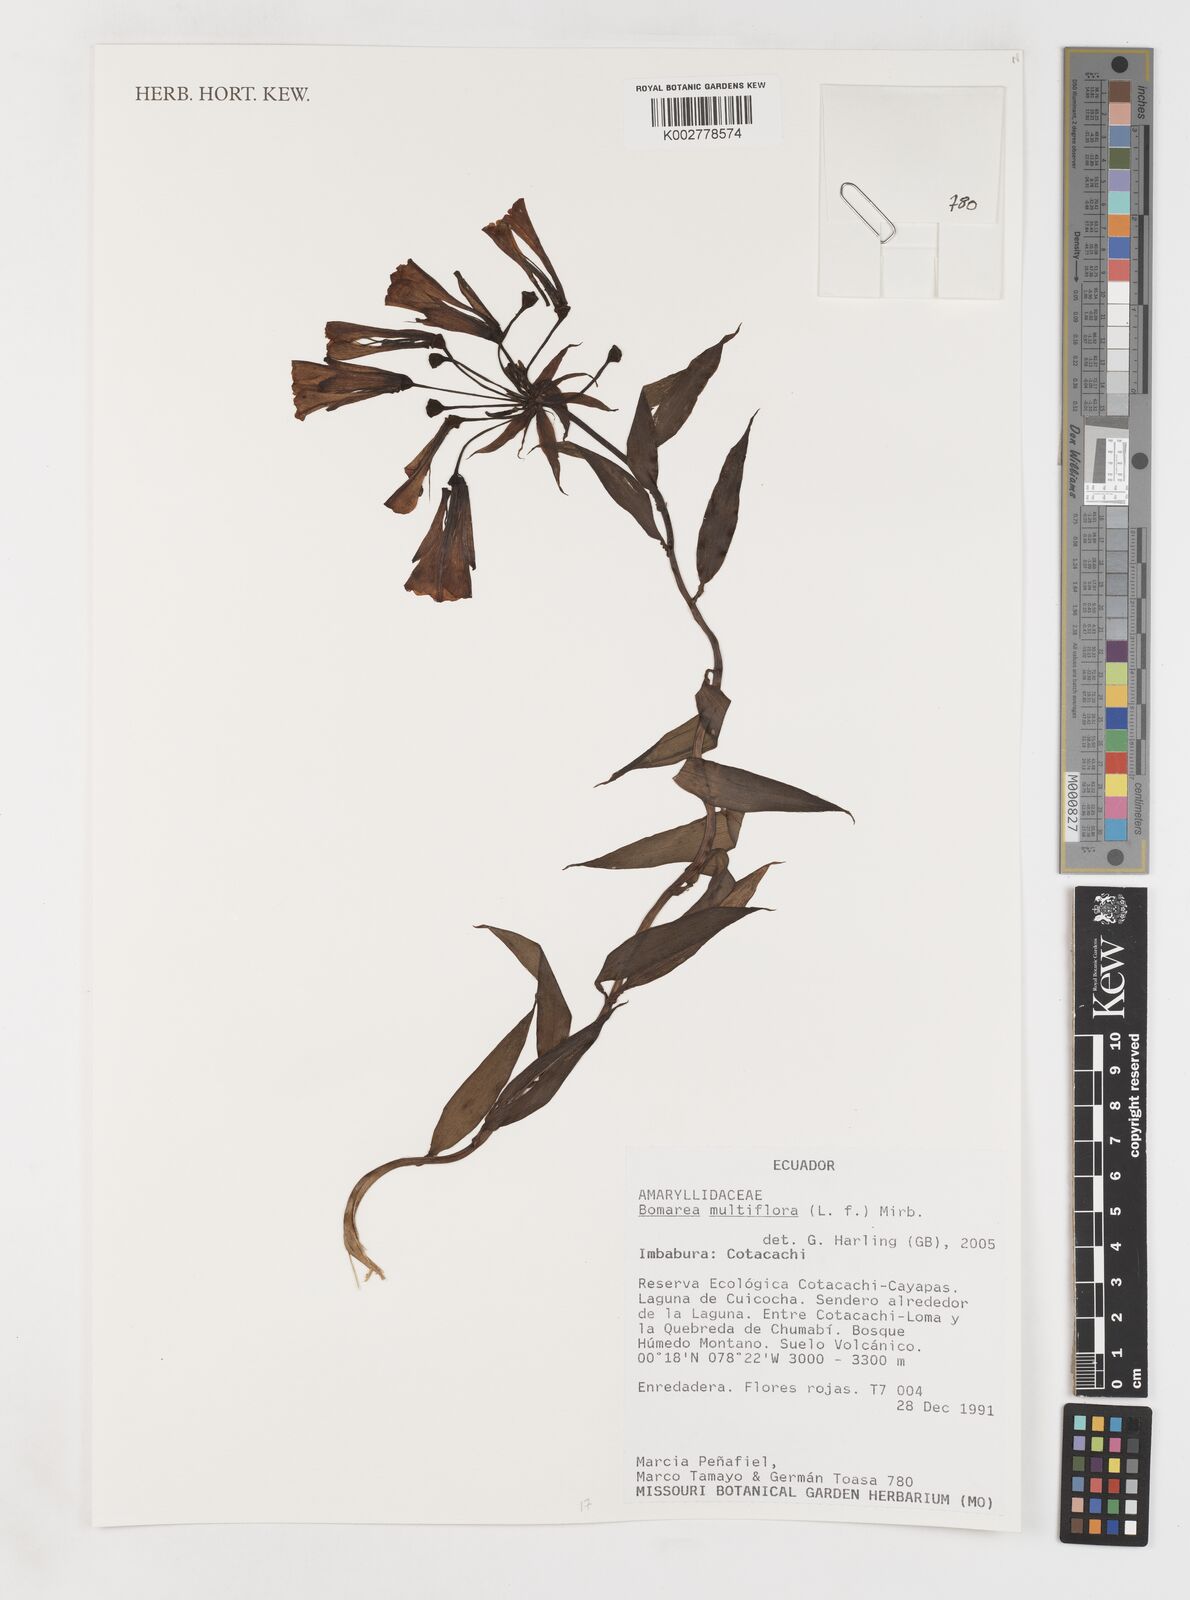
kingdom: Plantae
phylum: Tracheophyta
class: Liliopsida
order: Liliales
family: Alstroemeriaceae
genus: Bomarea
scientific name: Bomarea multiflora
